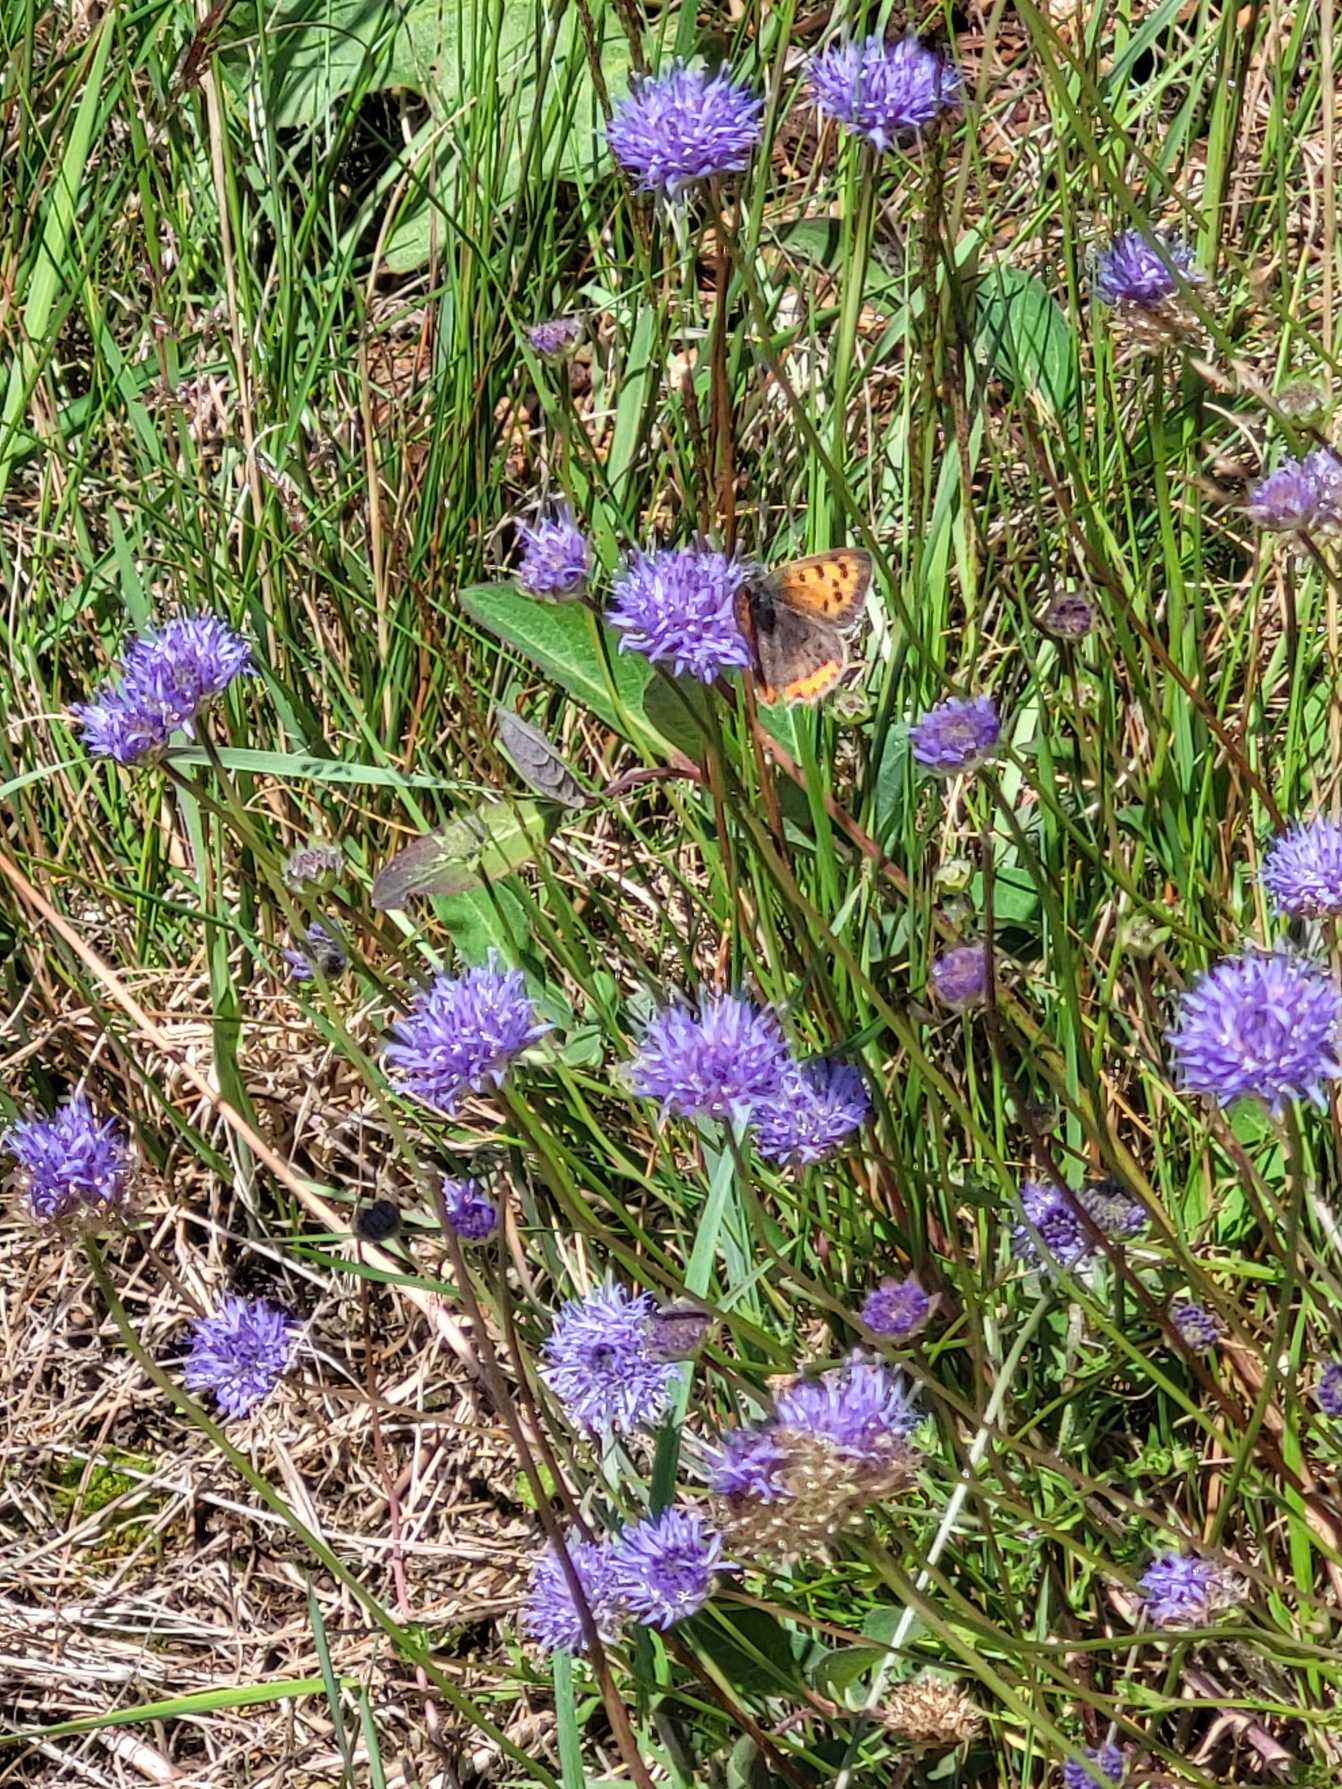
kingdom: Animalia
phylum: Arthropoda
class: Insecta
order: Lepidoptera
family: Lycaenidae
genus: Lycaena
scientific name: Lycaena phlaeas
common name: Lille ildfugl
